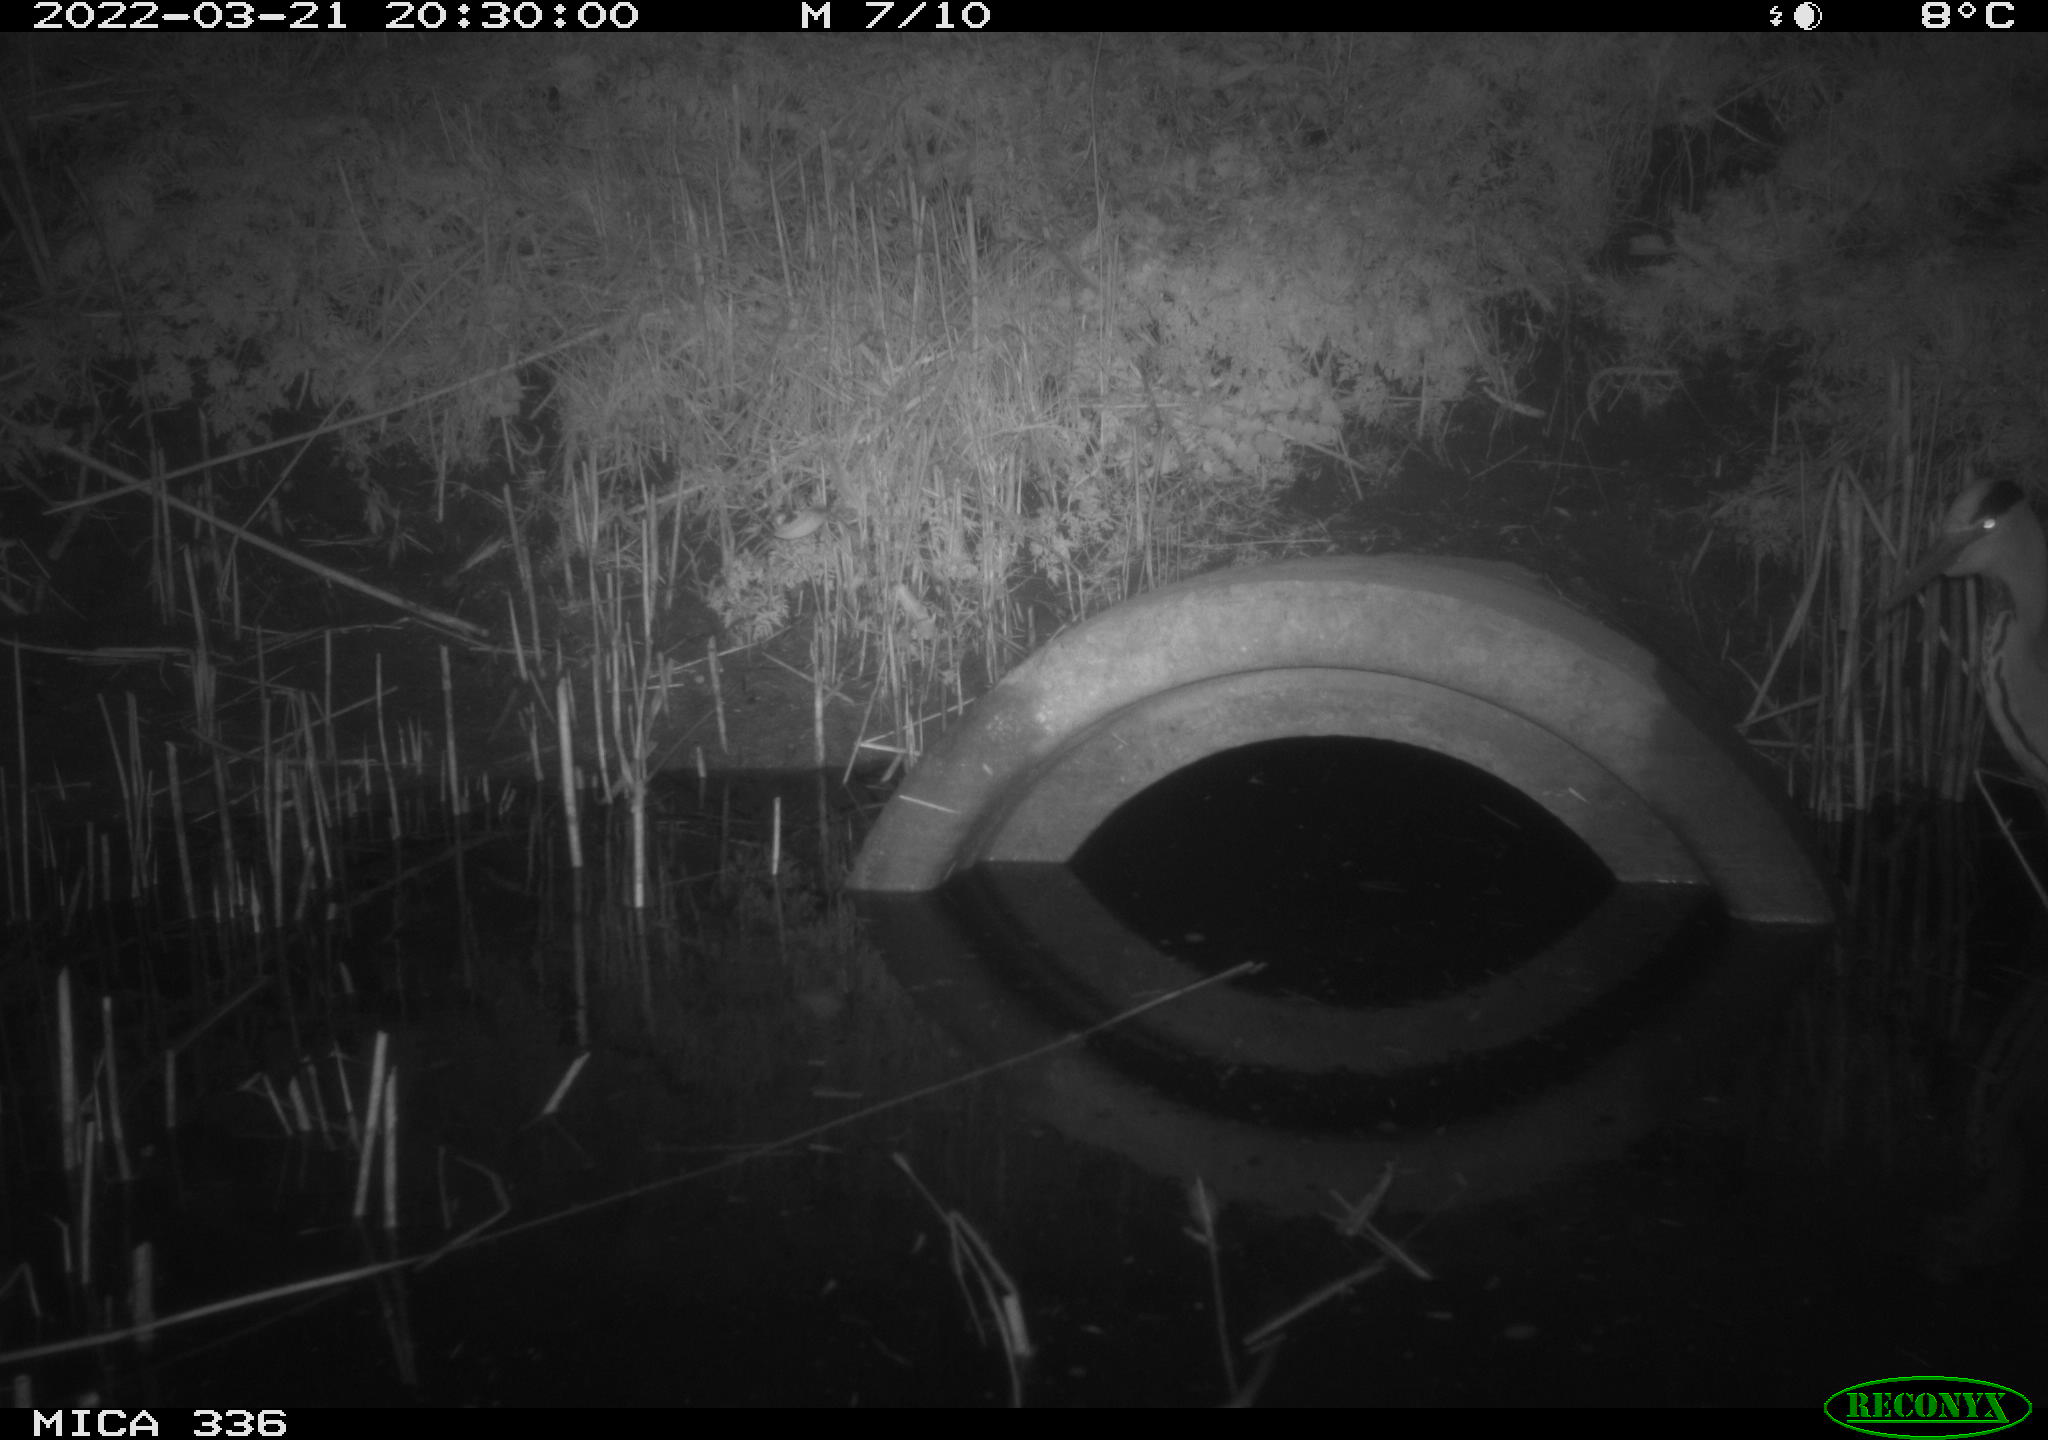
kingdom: Animalia
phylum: Chordata
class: Aves
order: Pelecaniformes
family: Ardeidae
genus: Ardea
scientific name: Ardea cinerea
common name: Grey heron
